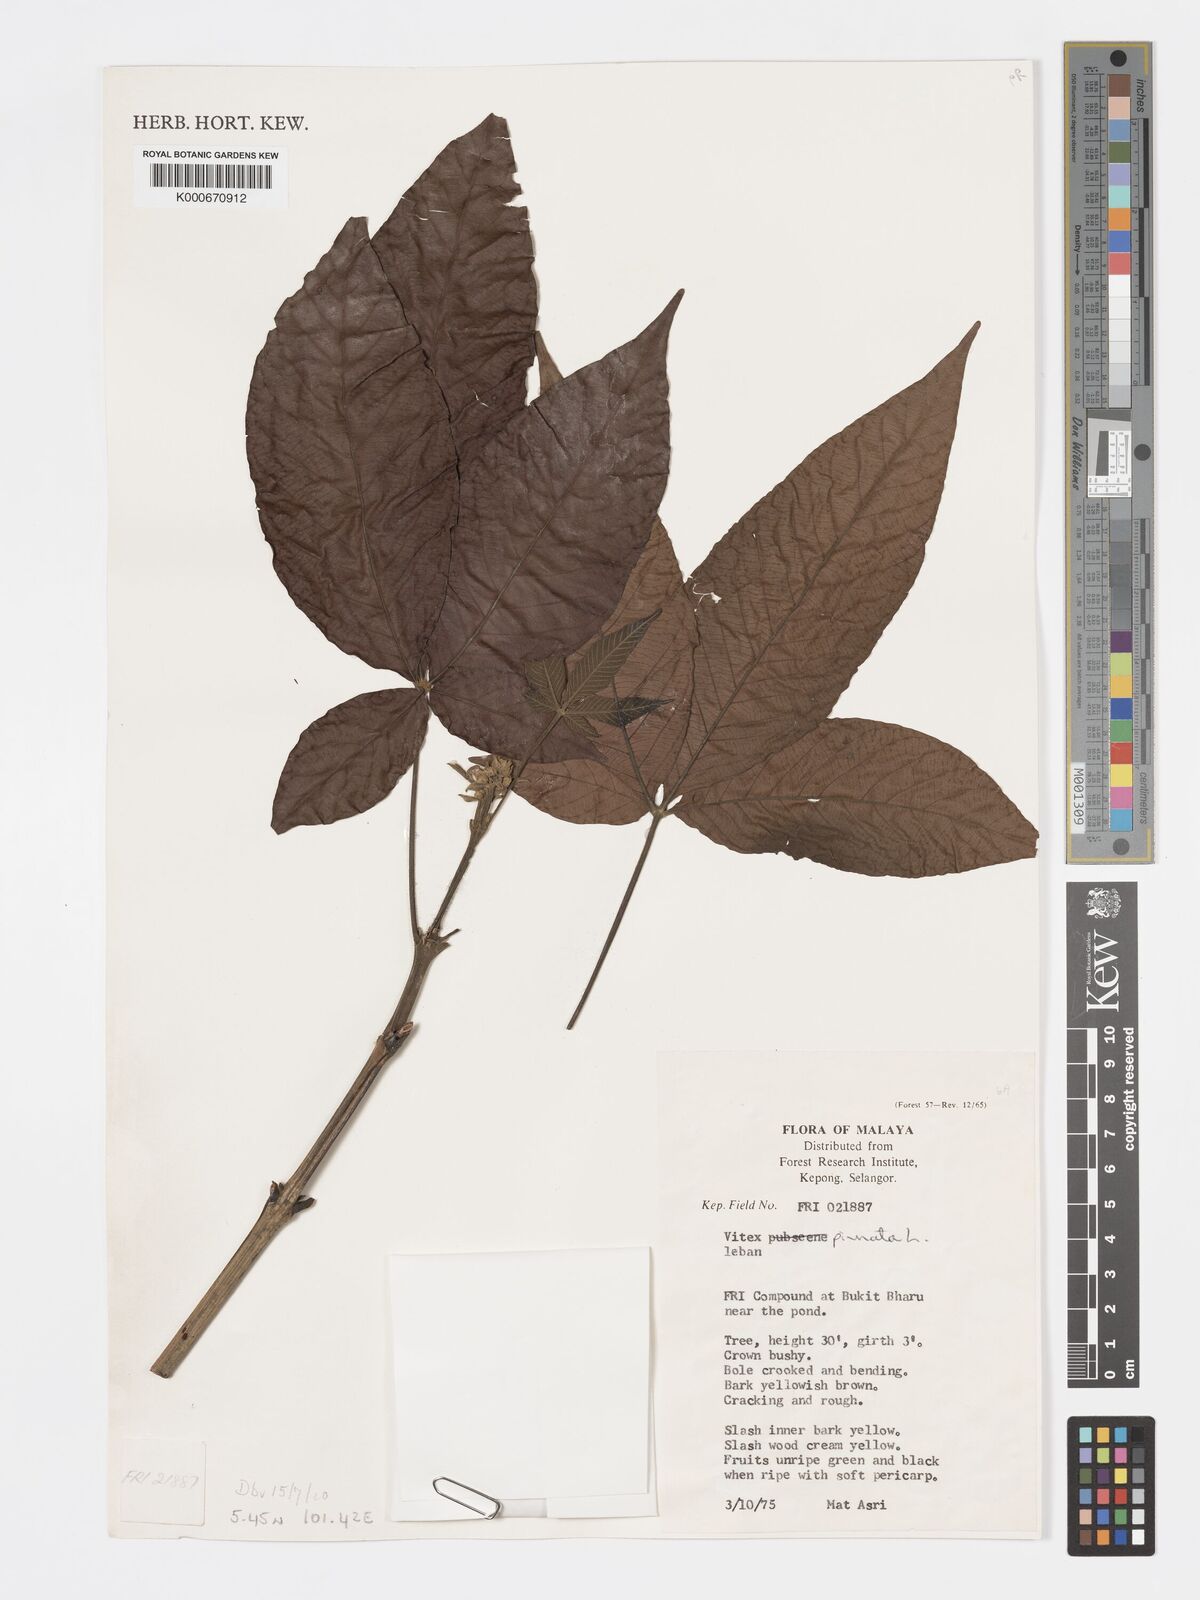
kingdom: Plantae
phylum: Tracheophyta
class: Magnoliopsida
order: Lamiales
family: Lamiaceae
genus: Vitex
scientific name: Vitex pinnata
